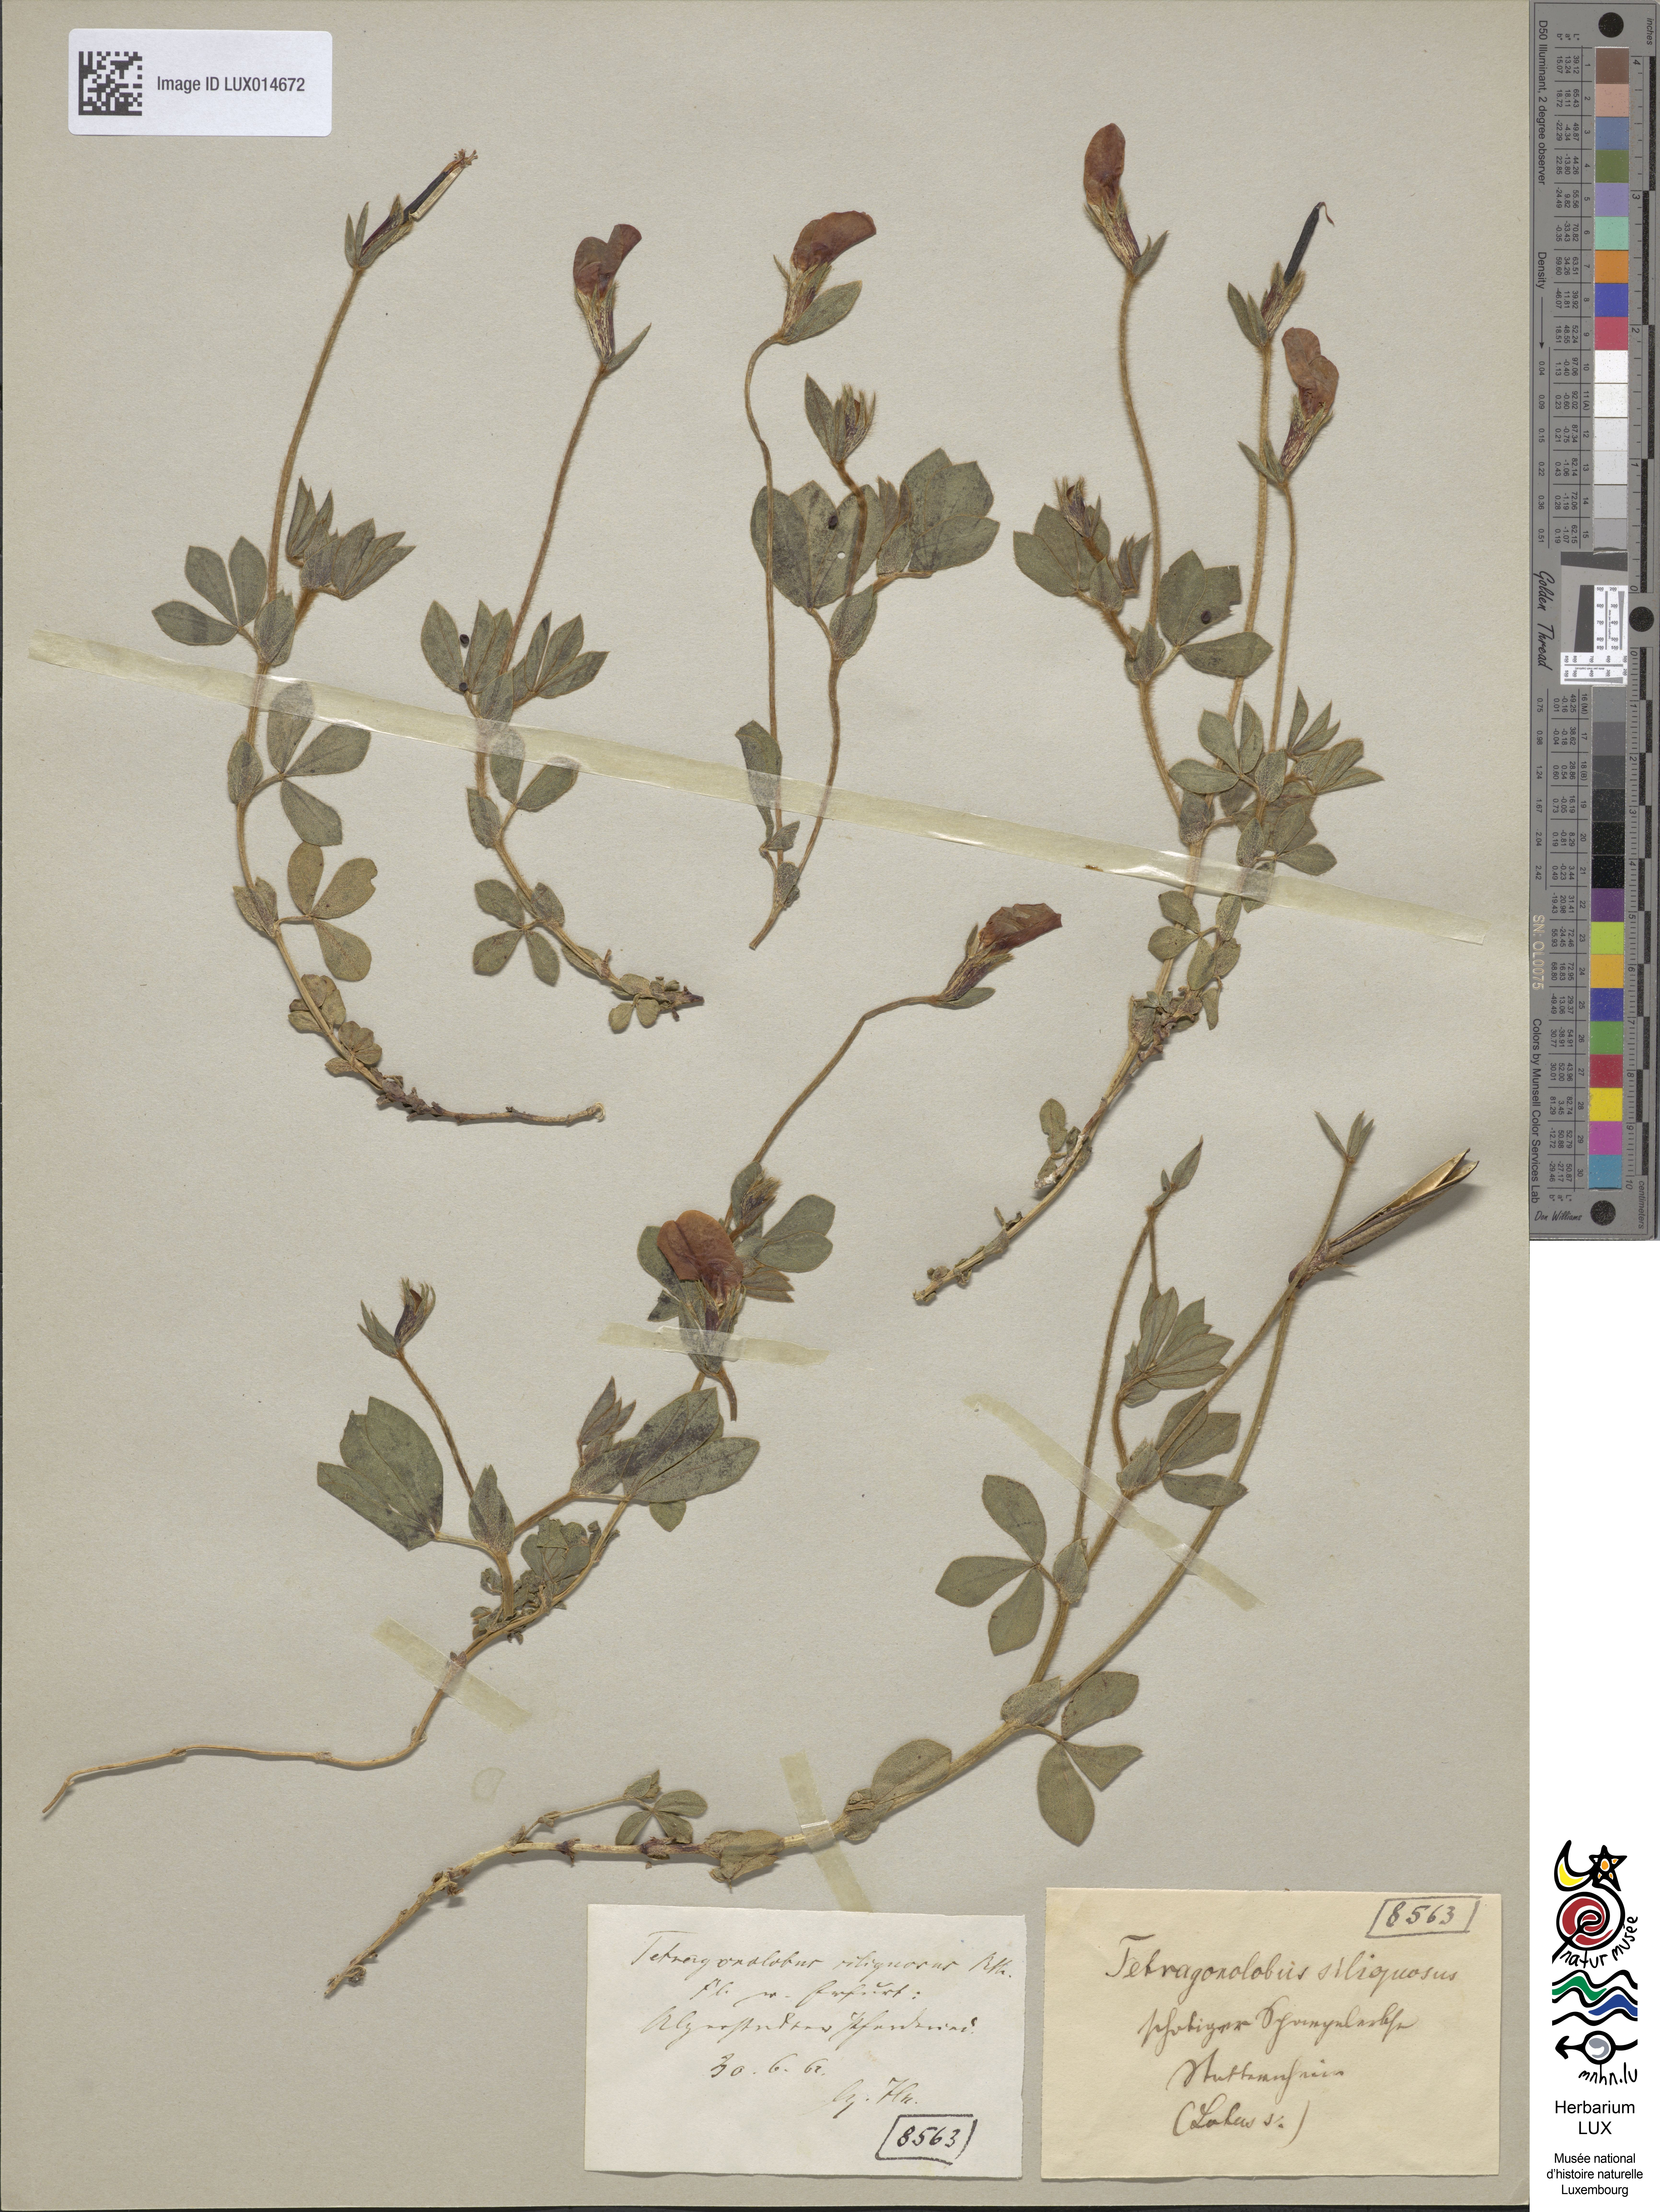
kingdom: Plantae
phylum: Tracheophyta
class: Magnoliopsida
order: Fabales
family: Fabaceae
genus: Lotus
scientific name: Lotus maritimus
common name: Dragon's-teeth
